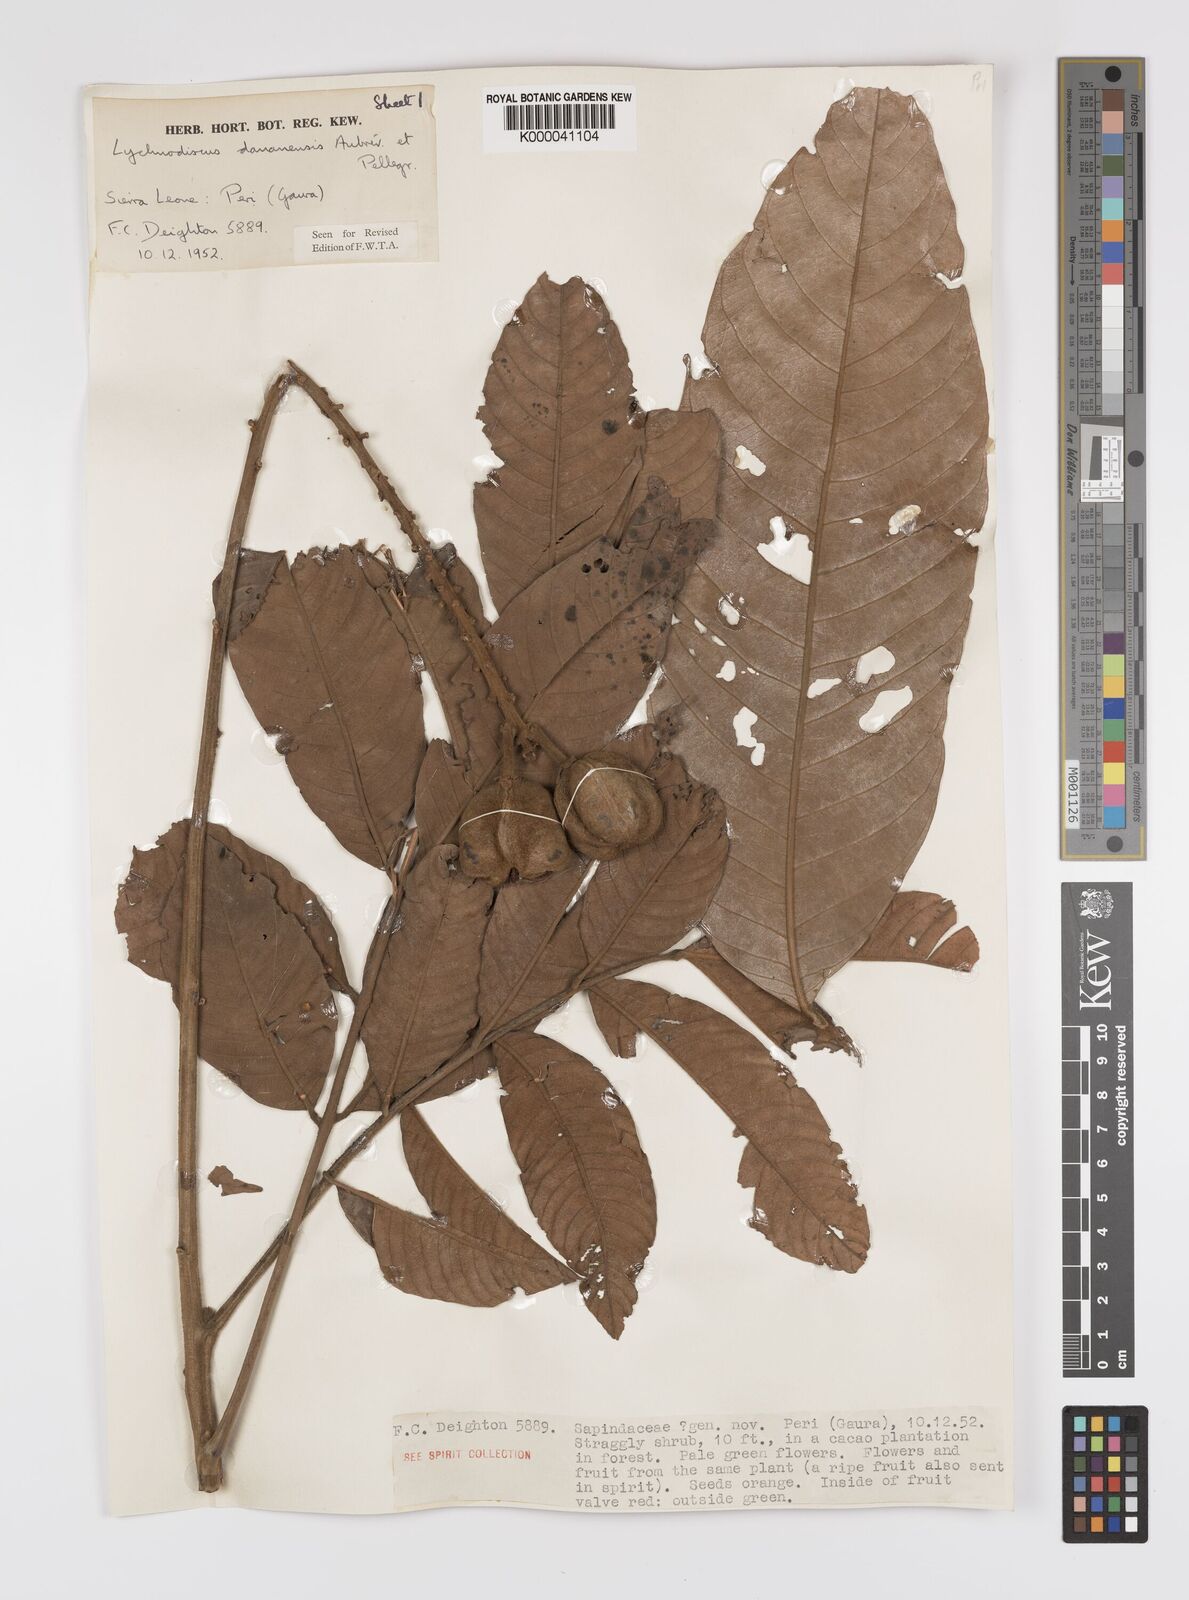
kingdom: Plantae
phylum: Tracheophyta
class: Magnoliopsida
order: Sapindales
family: Sapindaceae
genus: Lychnodiscus
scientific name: Lychnodiscus dananensis
